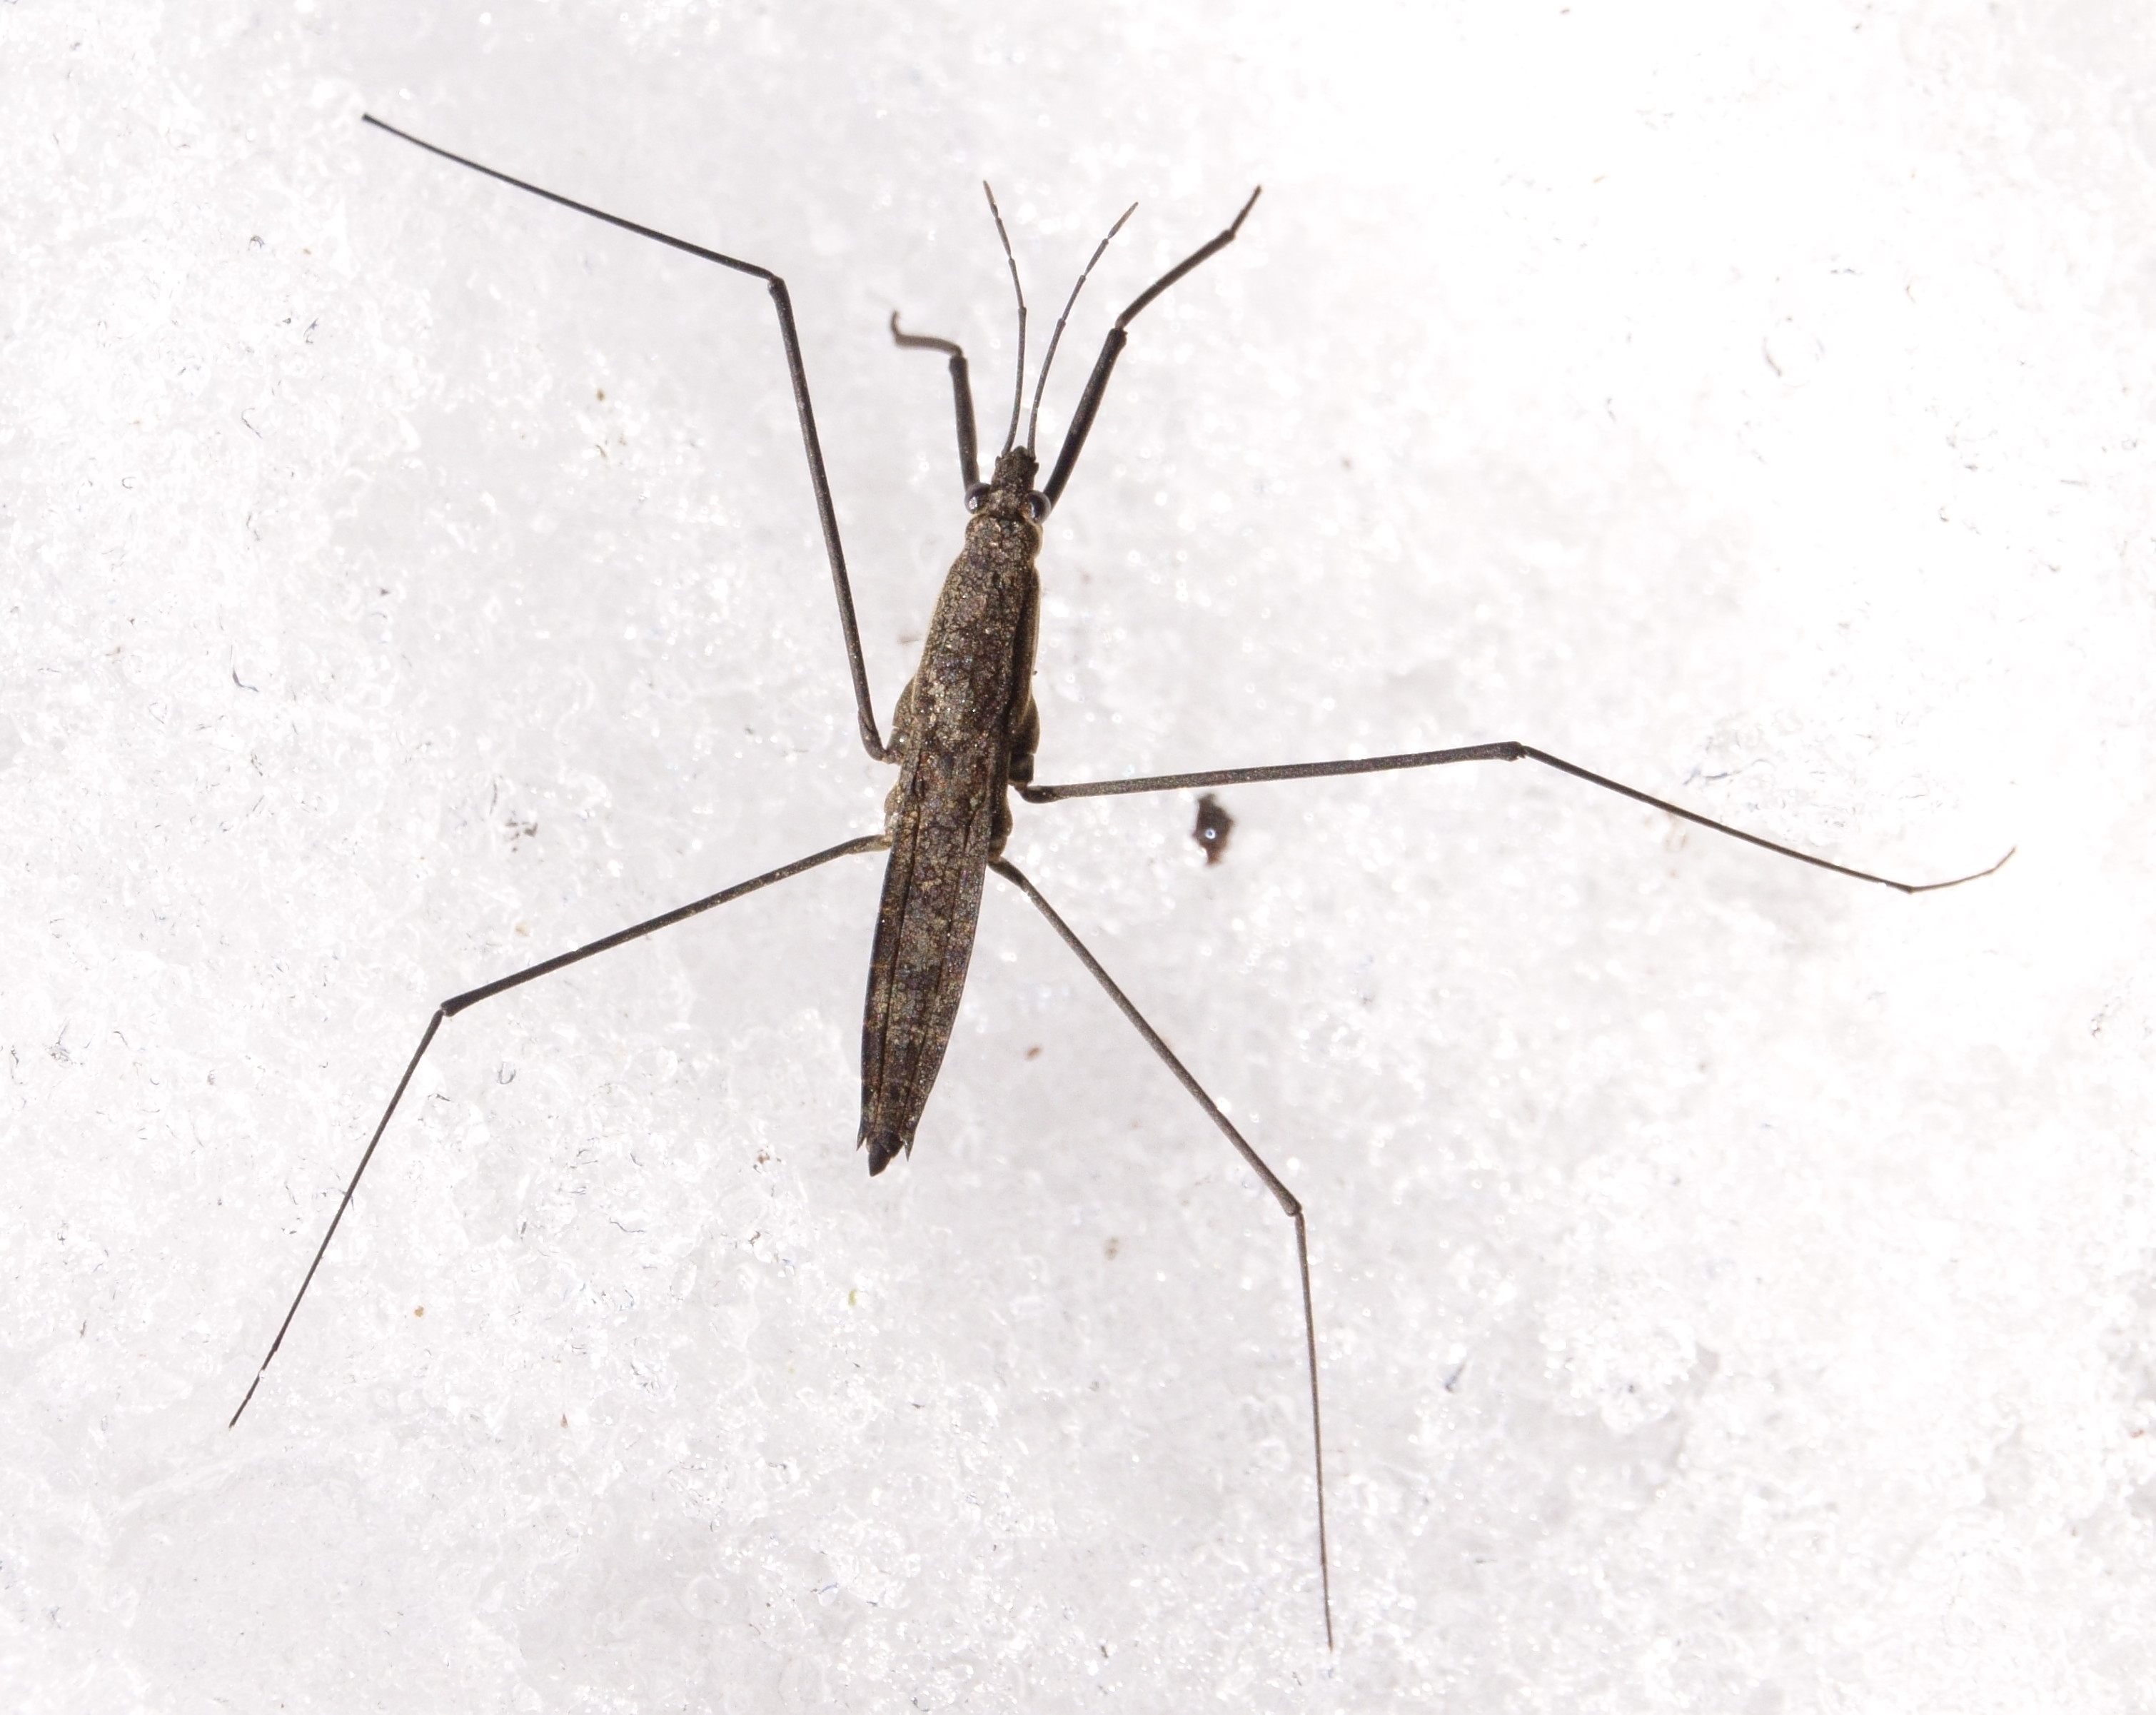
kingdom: Animalia
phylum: Arthropoda
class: Insecta
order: Hemiptera
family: Gerridae
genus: Aquarius
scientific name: Aquarius najas
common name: River skater
